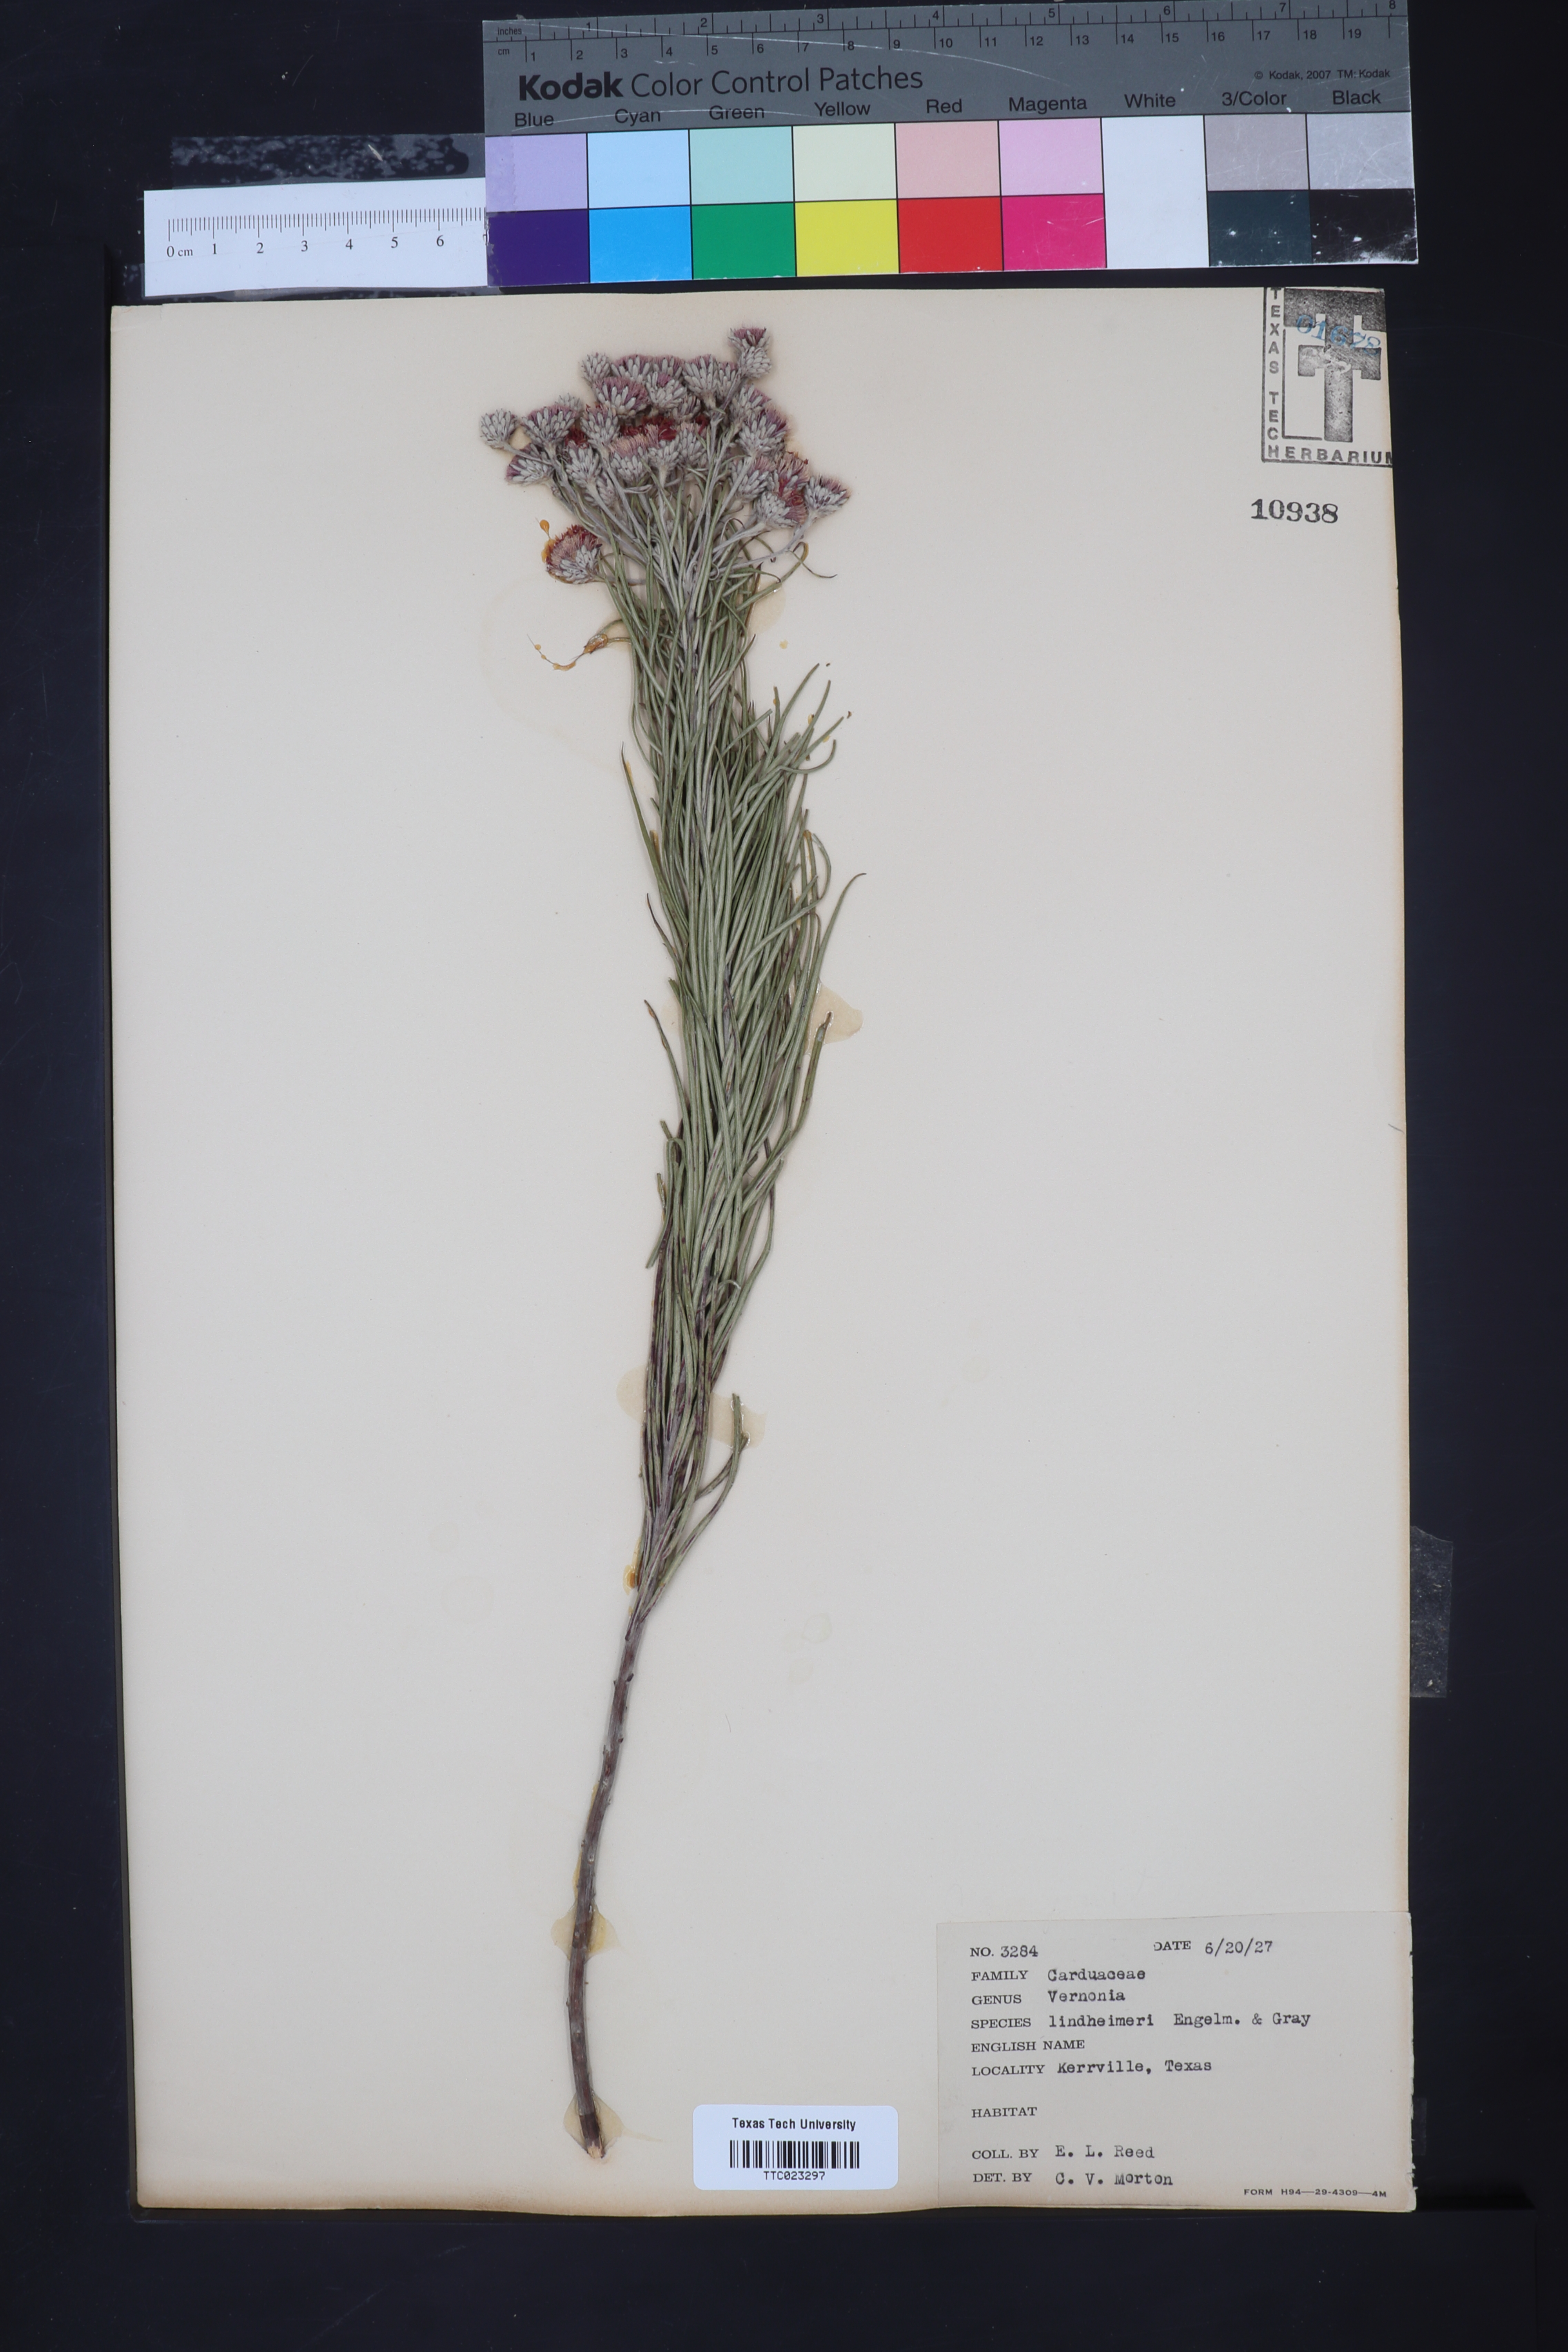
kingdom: Plantae
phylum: Tracheophyta
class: Magnoliopsida
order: Asterales
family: Asteraceae
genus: Vernonia
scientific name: Vernonia lindheimeri
